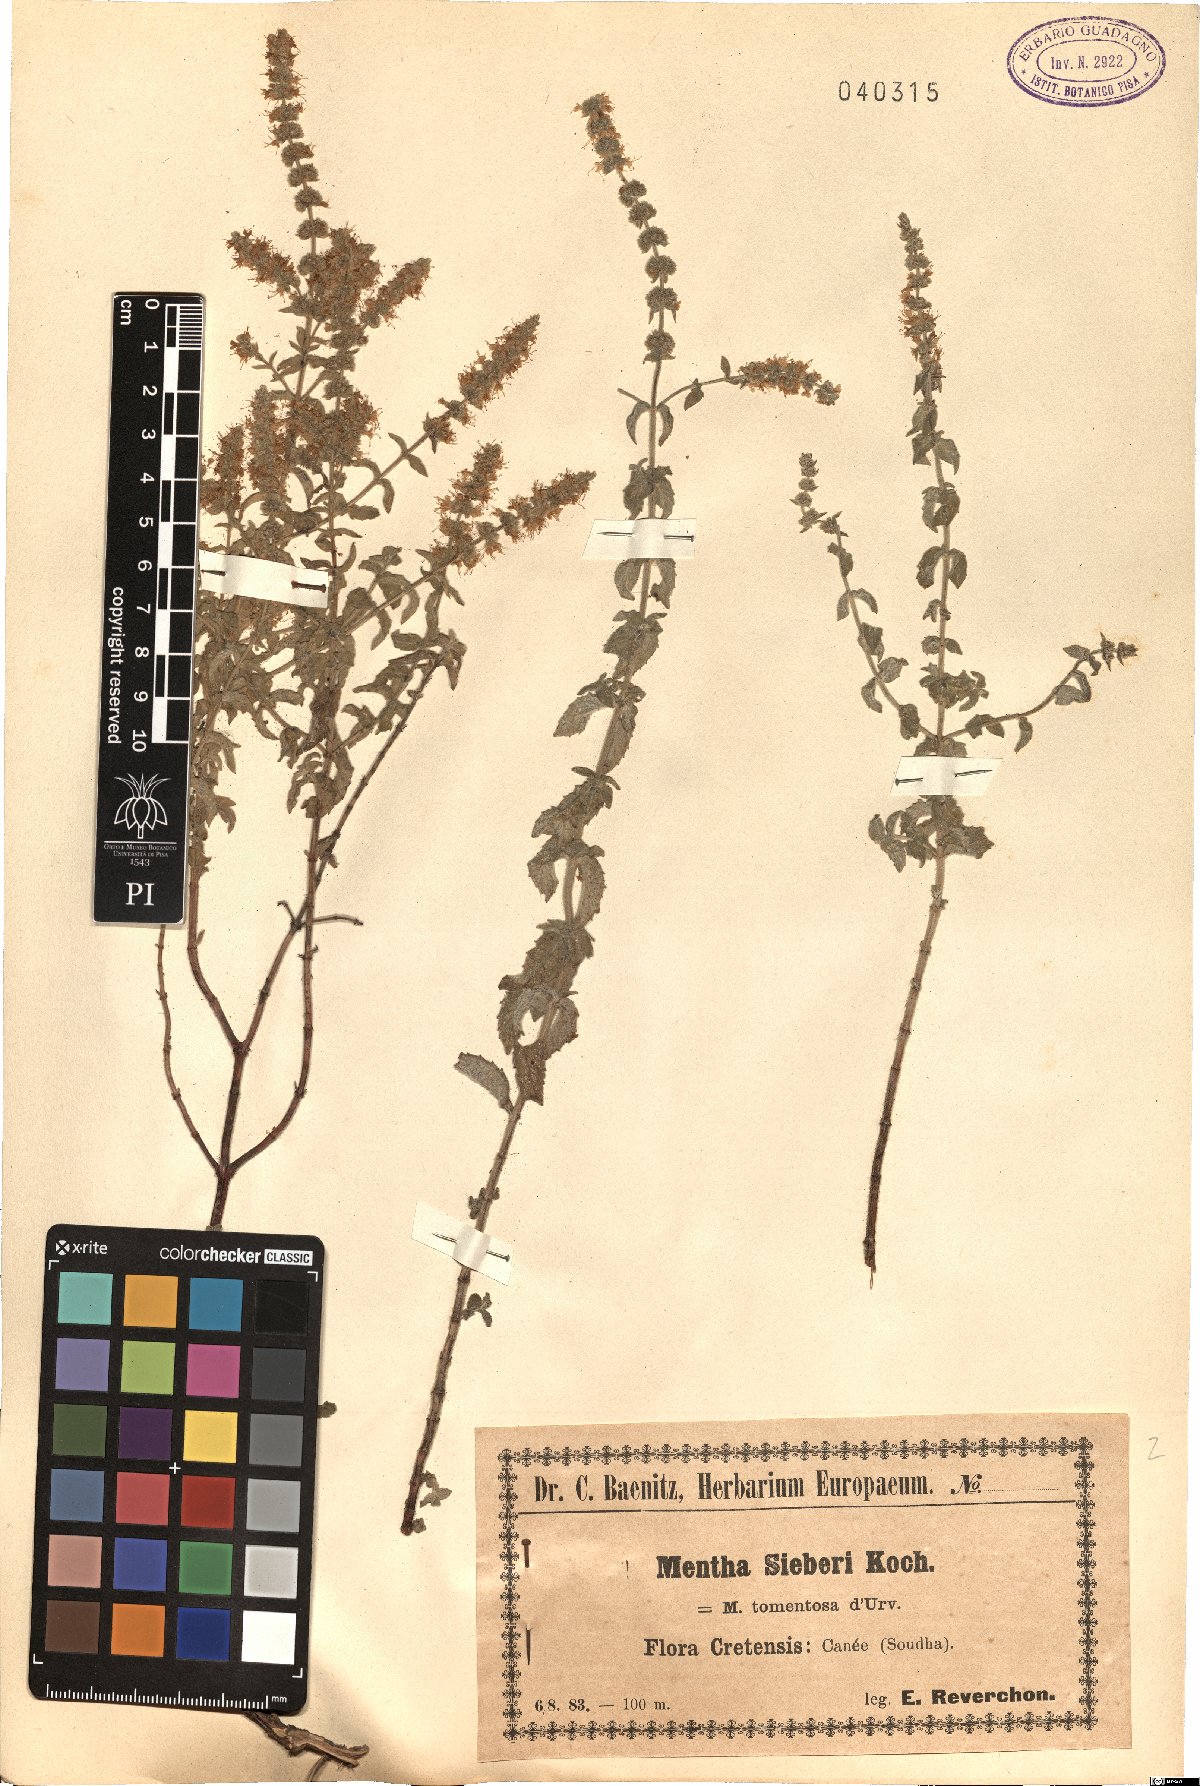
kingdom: Plantae
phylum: Tracheophyta
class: Magnoliopsida
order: Lamiales
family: Lamiaceae
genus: Mentha
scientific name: Mentha spicata
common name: Spearmint
